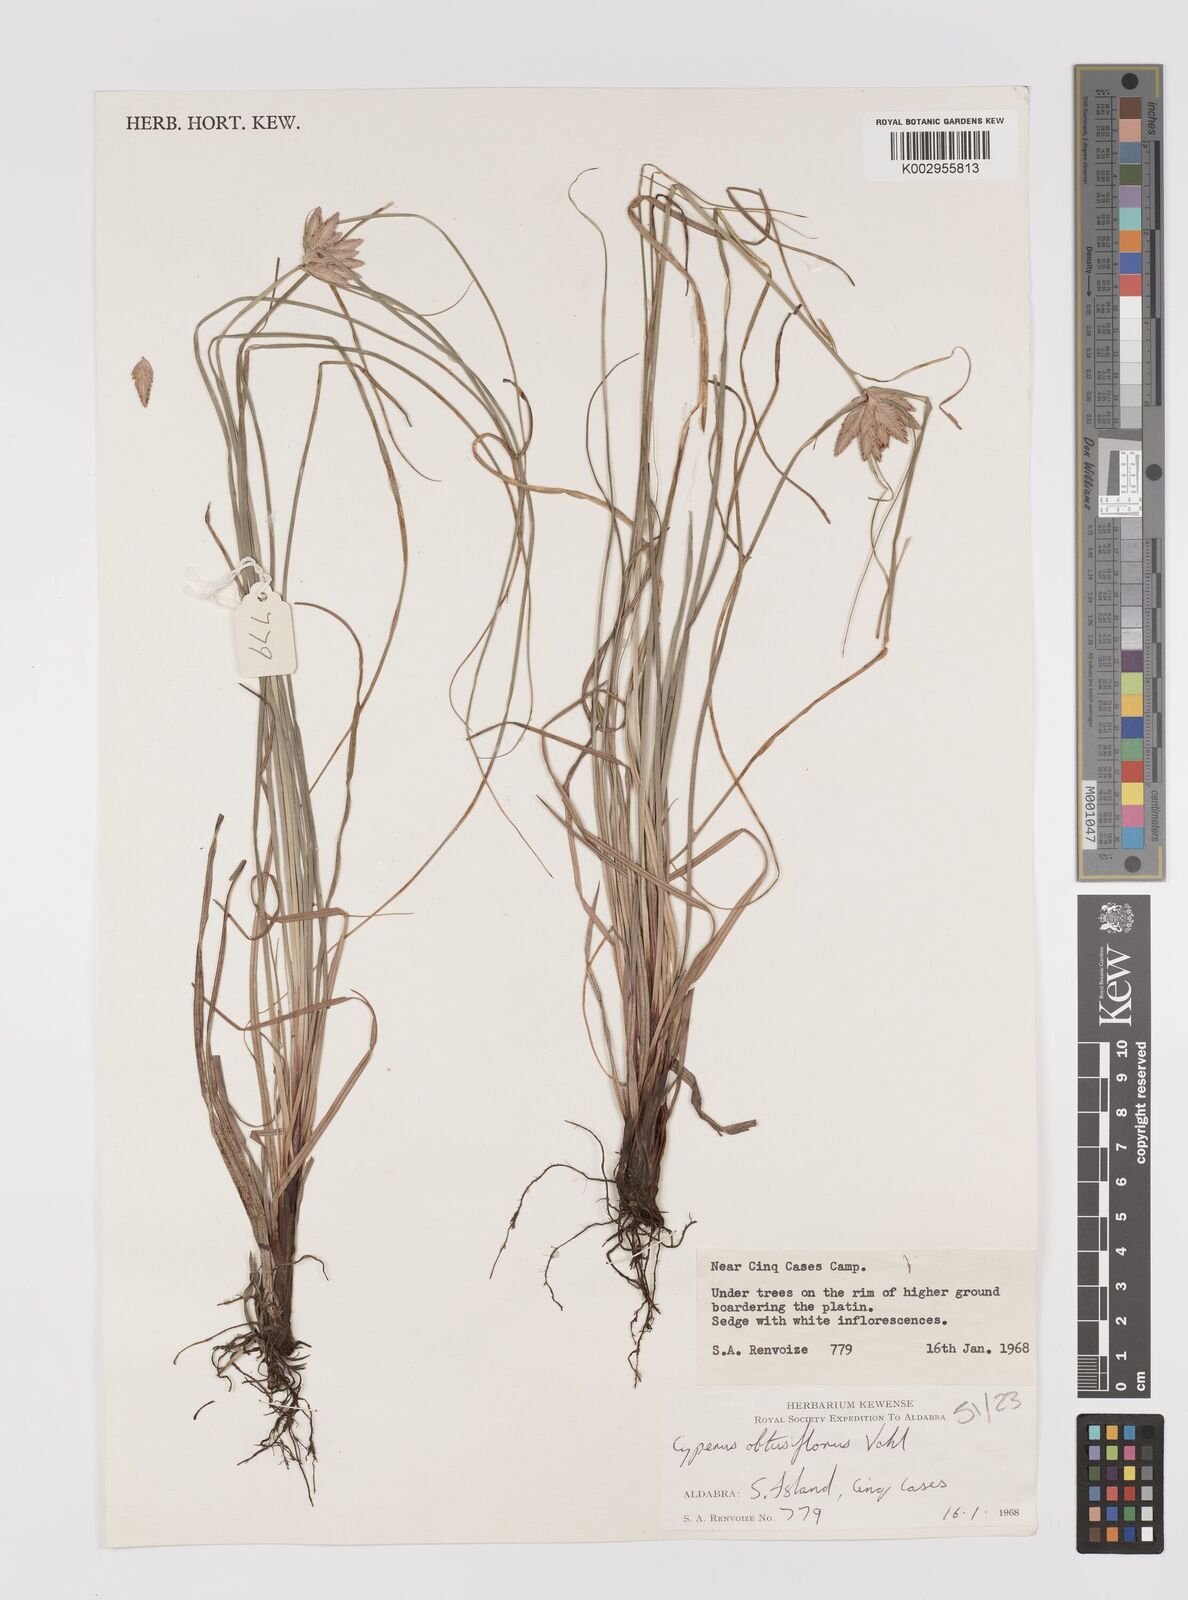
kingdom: Plantae
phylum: Tracheophyta
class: Liliopsida
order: Poales
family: Cyperaceae
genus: Cyperus
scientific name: Cyperus niveus
